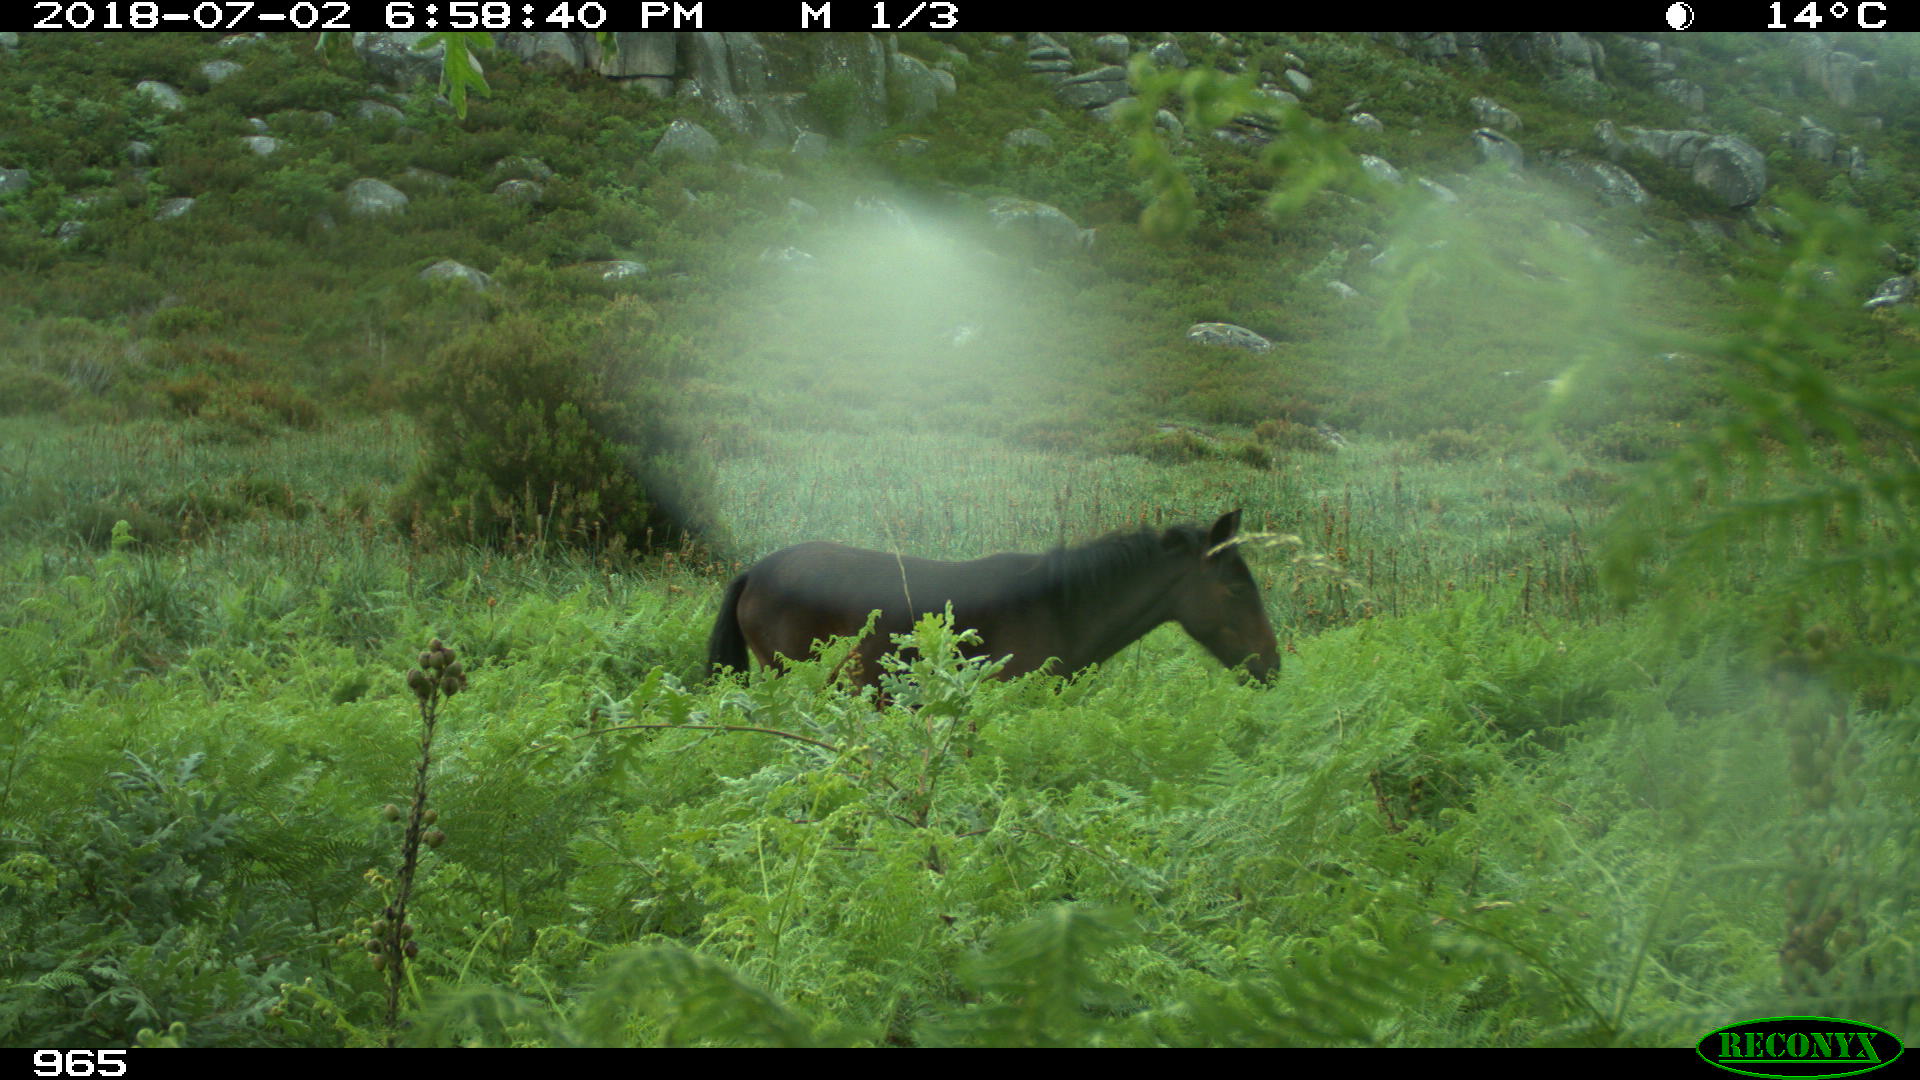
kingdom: Animalia
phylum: Chordata
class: Mammalia
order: Perissodactyla
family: Equidae
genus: Equus
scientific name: Equus caballus
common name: Horse
